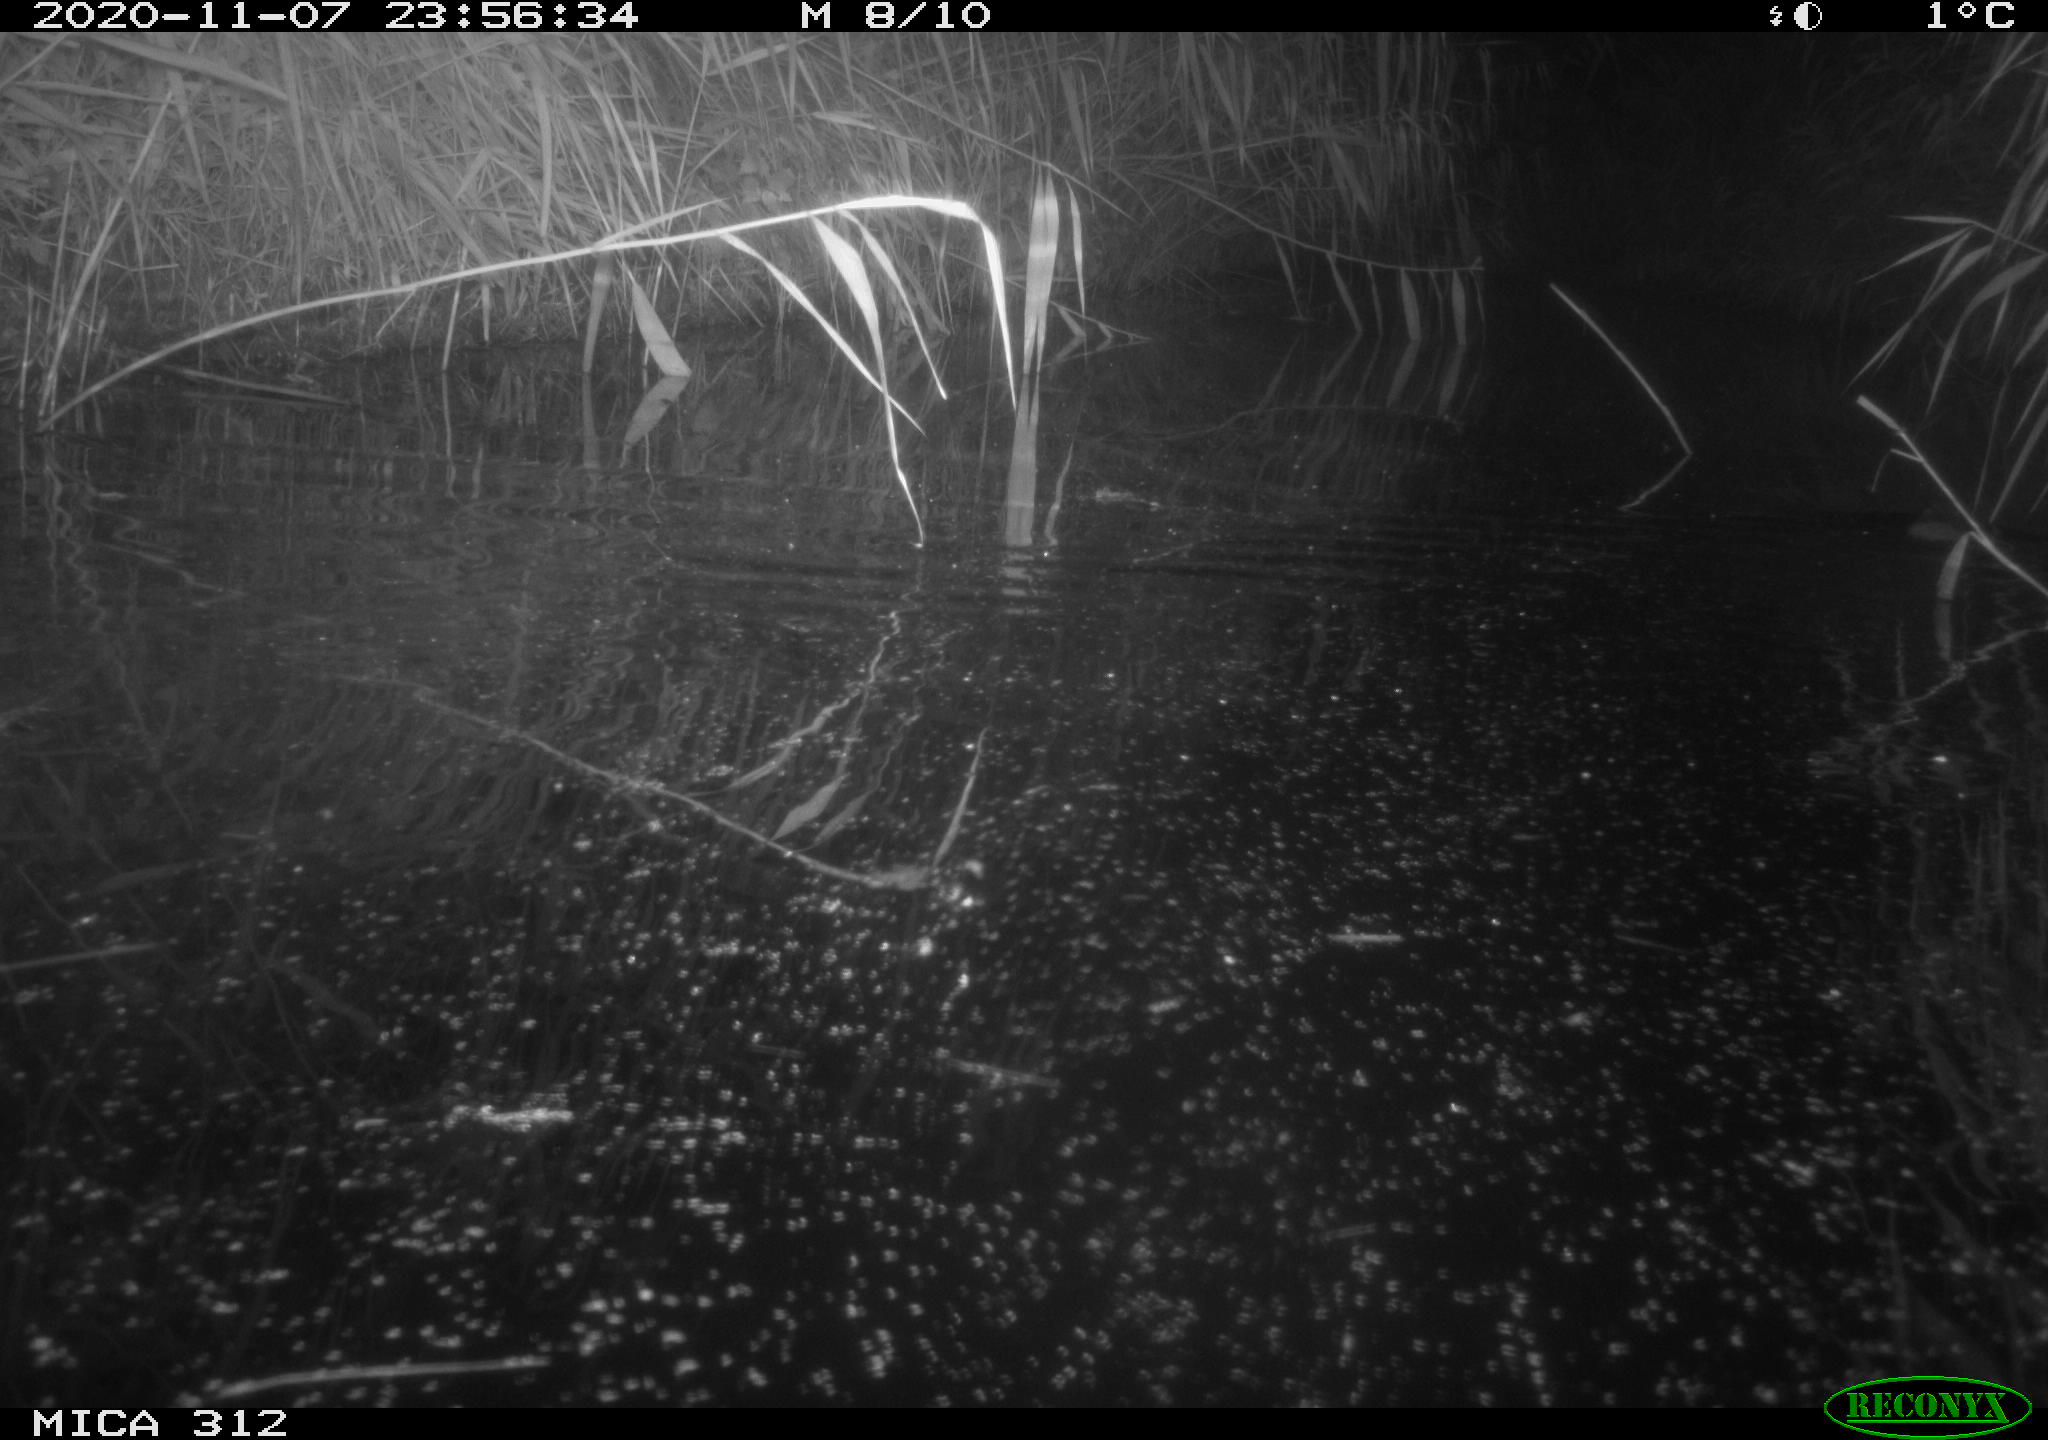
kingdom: Animalia
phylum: Chordata
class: Mammalia
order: Rodentia
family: Muridae
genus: Rattus
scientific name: Rattus norvegicus
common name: Brown rat
